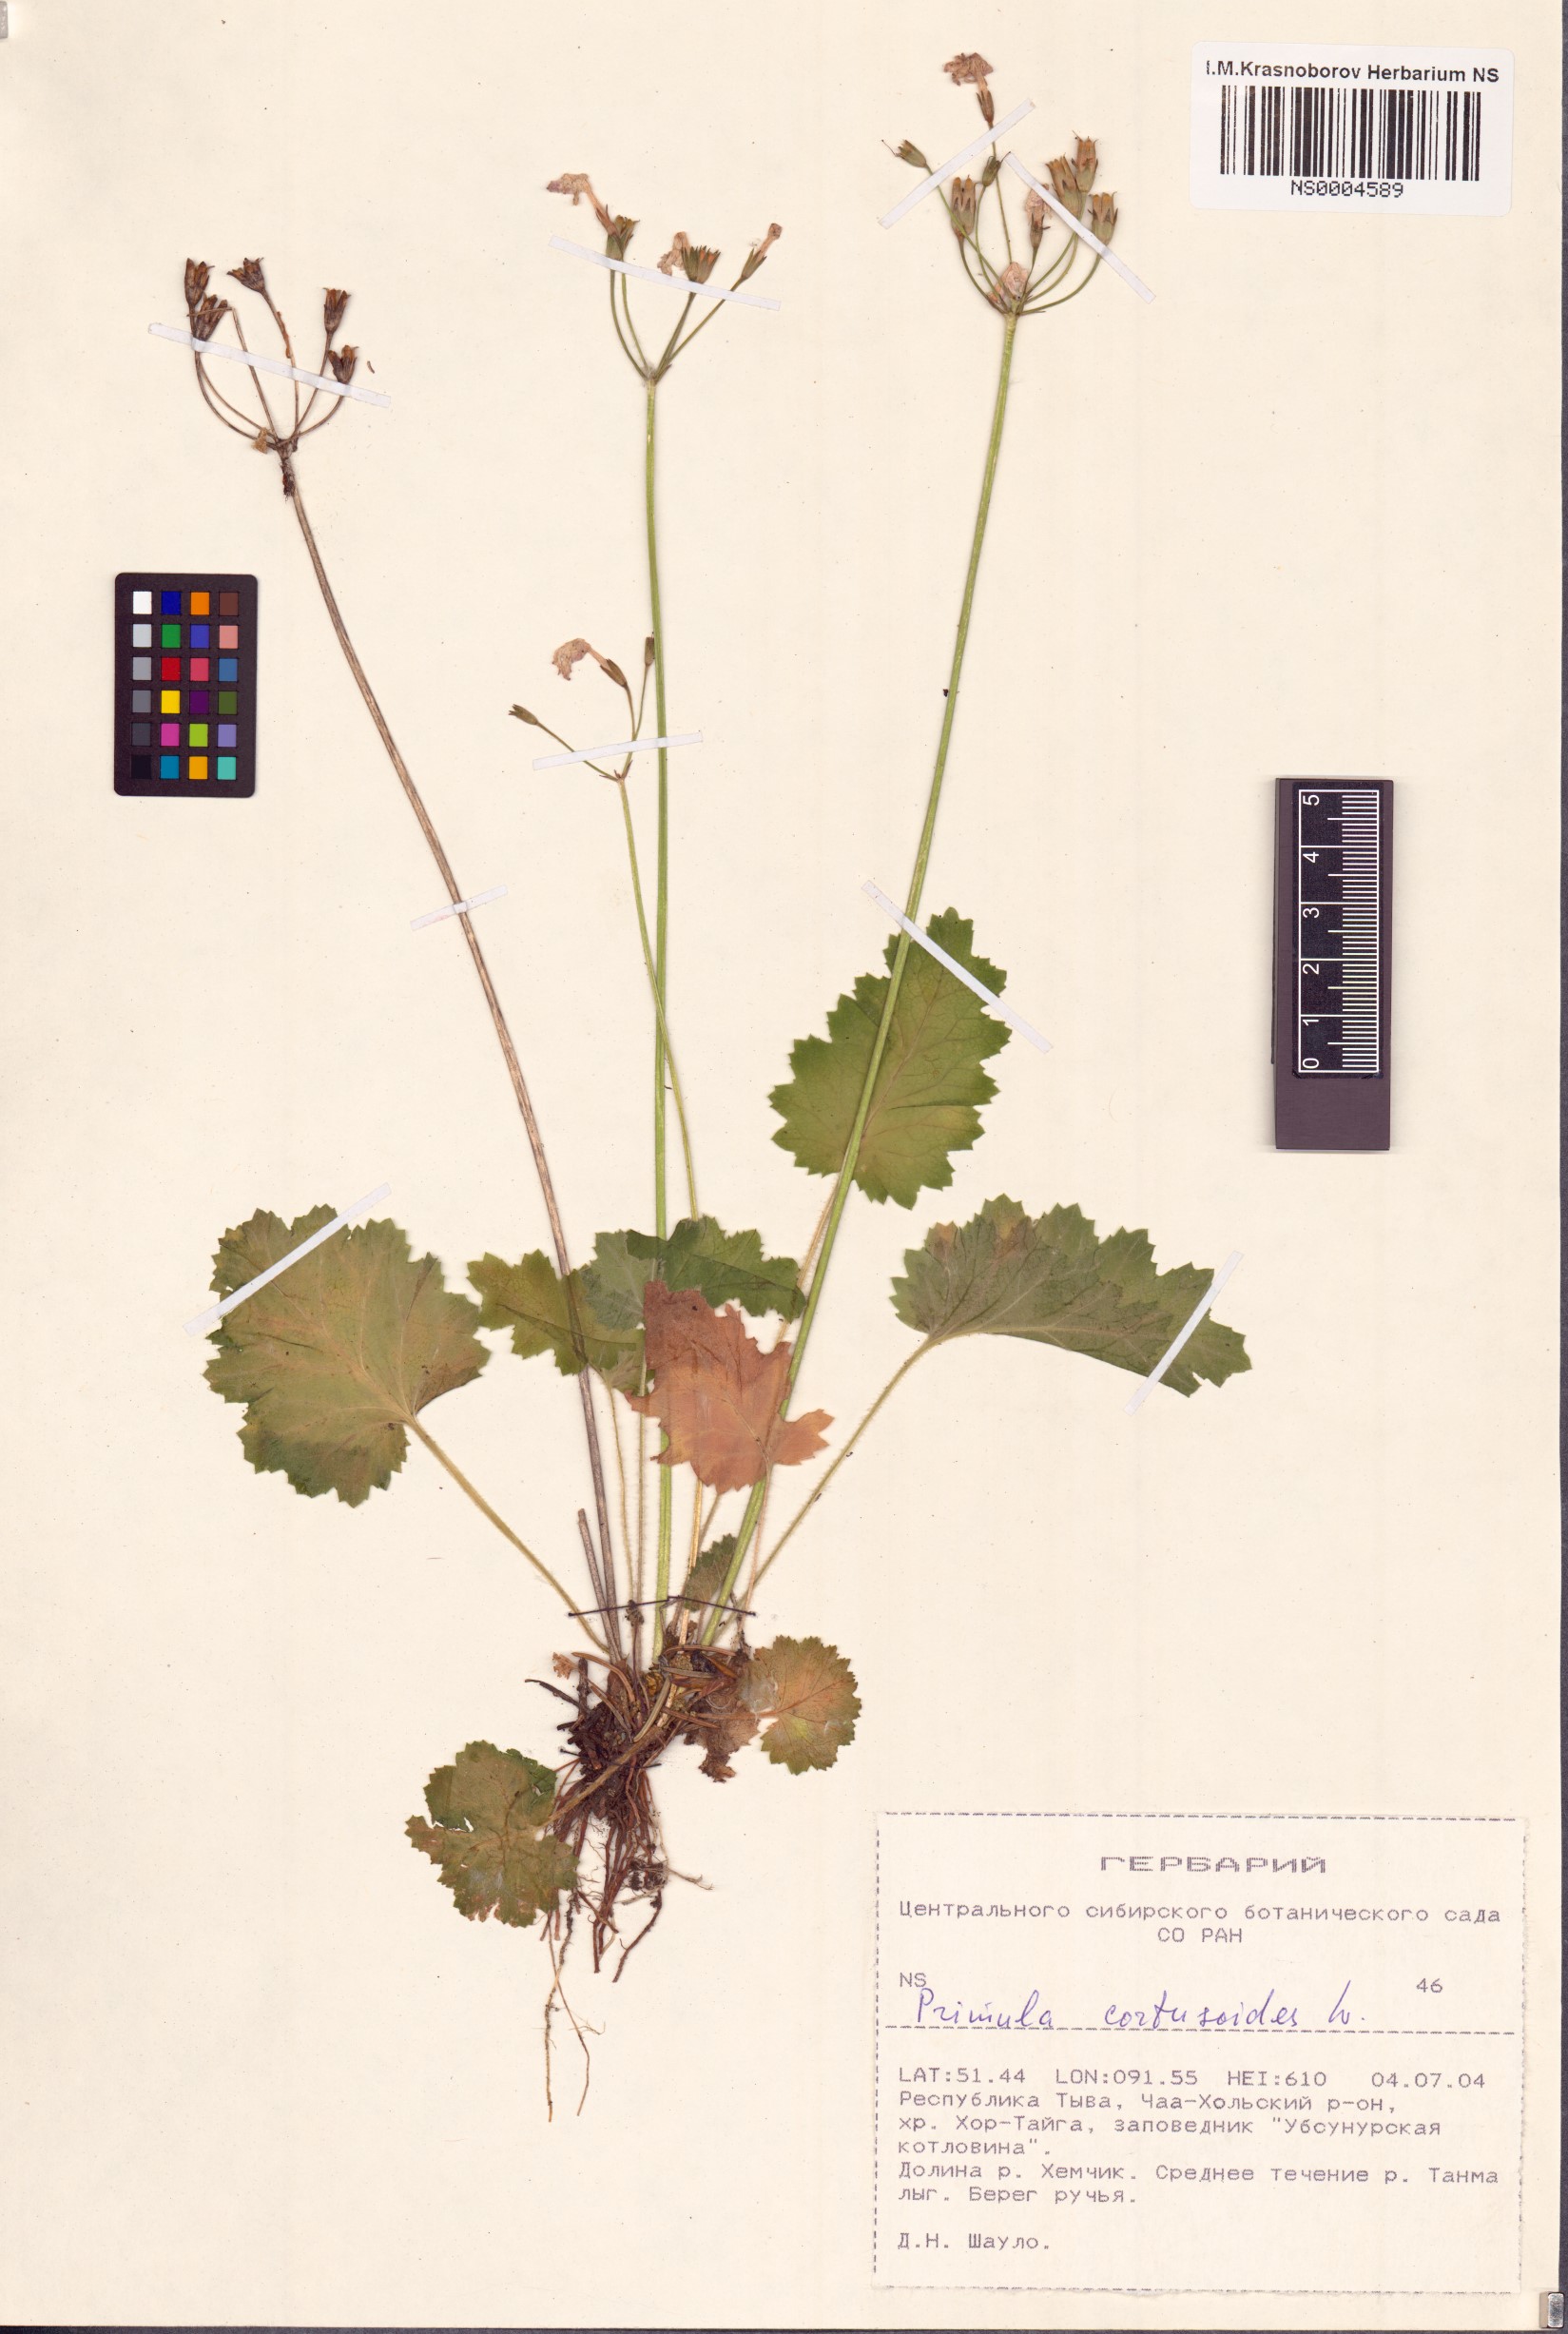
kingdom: Plantae
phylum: Tracheophyta
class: Magnoliopsida
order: Ericales
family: Primulaceae
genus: Primula
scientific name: Primula cortusoides
